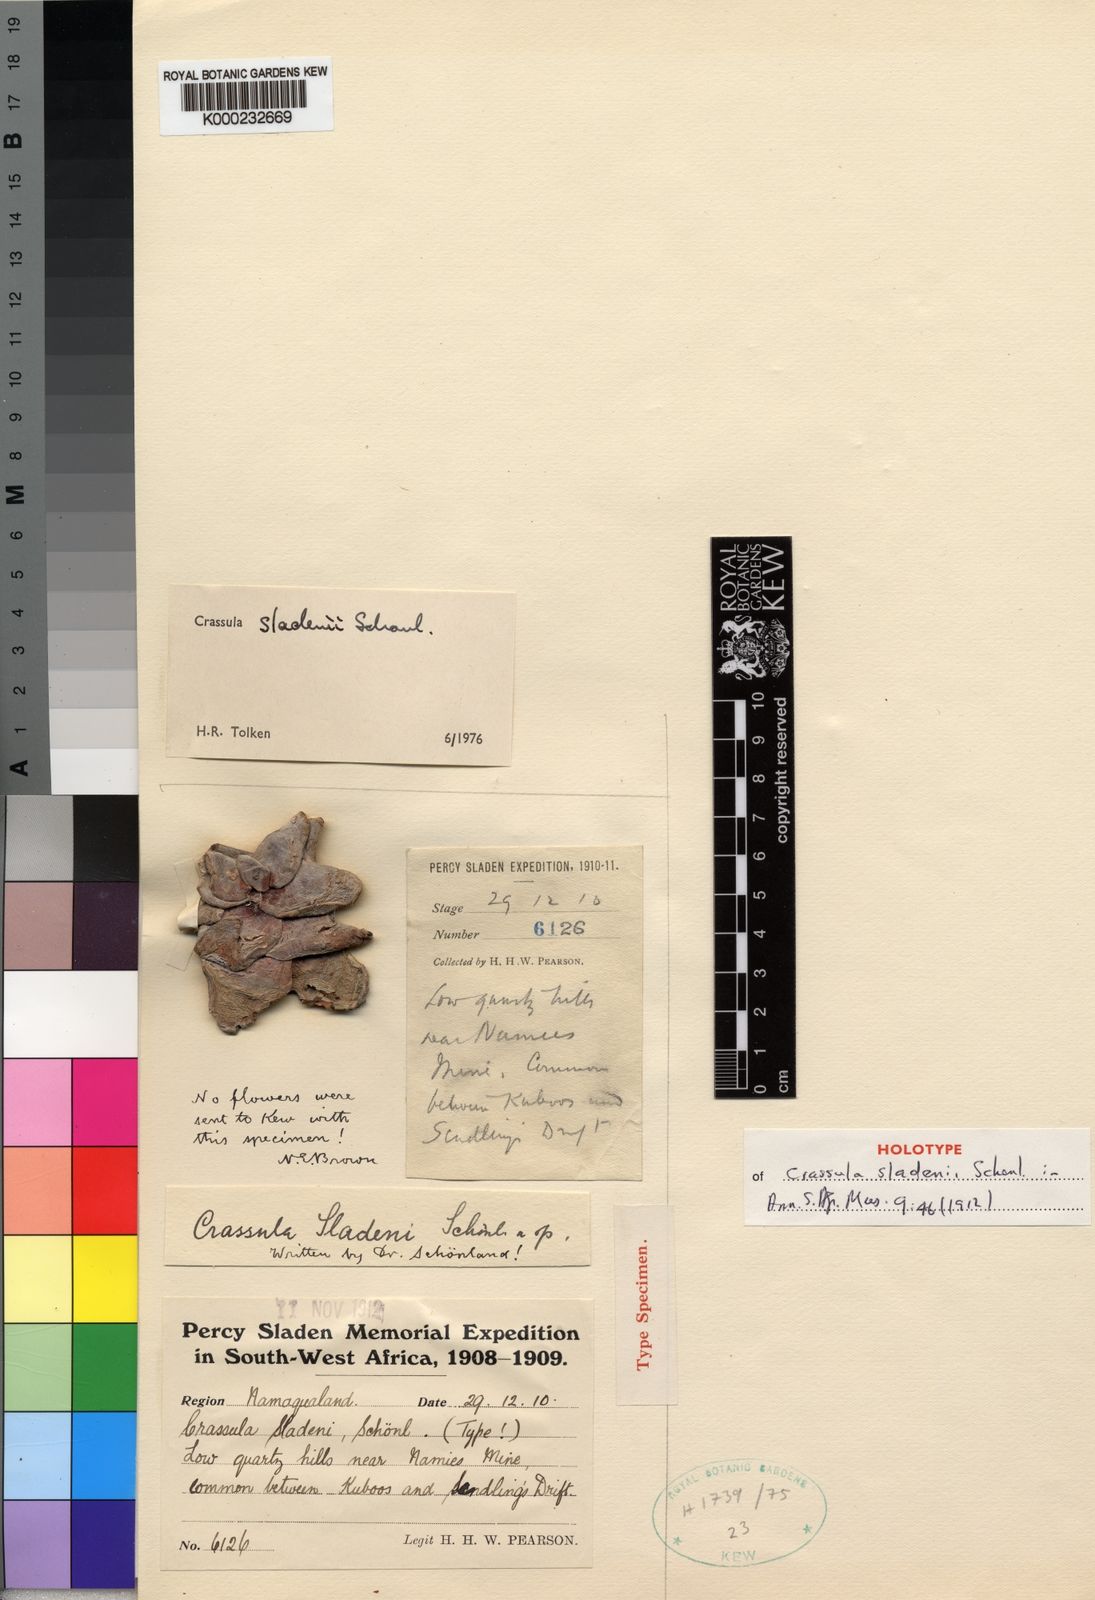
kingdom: Plantae
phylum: Tracheophyta
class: Magnoliopsida
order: Saxifragales
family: Crassulaceae
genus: Crassula
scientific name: Crassula
